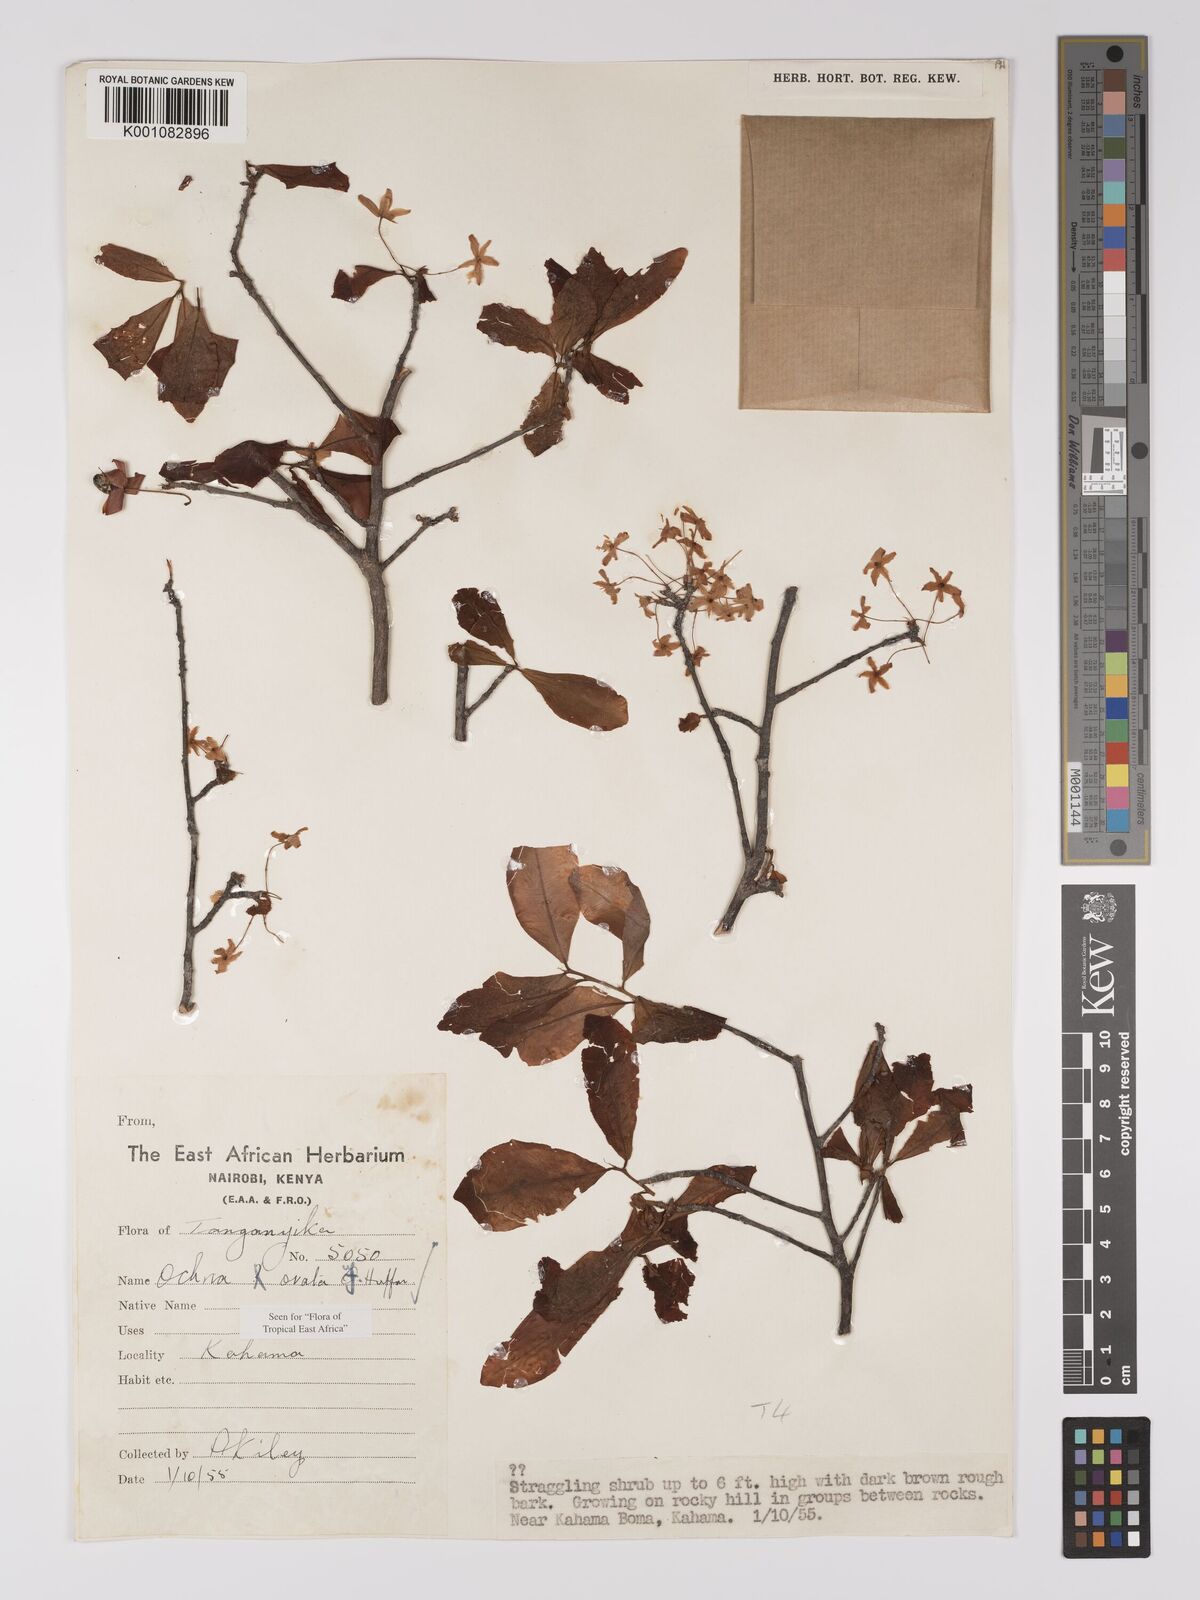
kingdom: Plantae
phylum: Tracheophyta
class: Magnoliopsida
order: Malpighiales
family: Ochnaceae
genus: Ochna
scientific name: Ochna ovata
